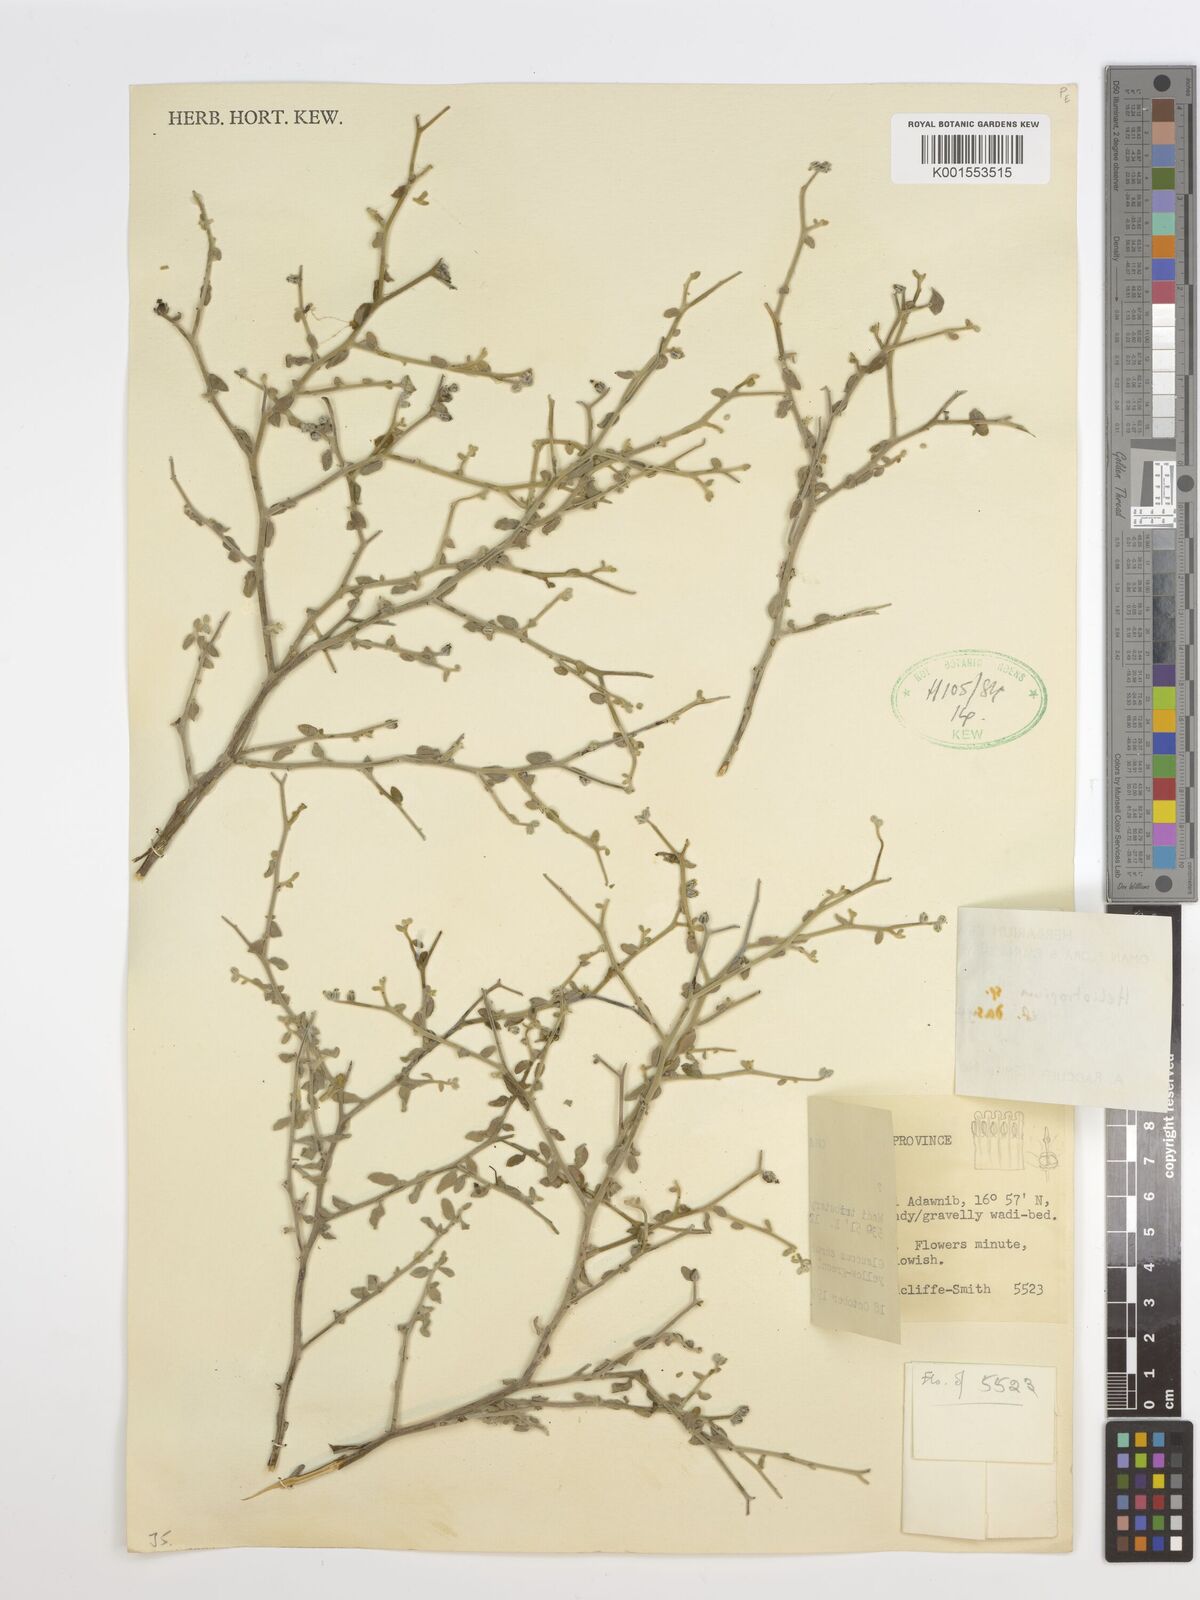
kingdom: Plantae
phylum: Tracheophyta
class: Magnoliopsida
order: Boraginales
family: Heliotropiaceae
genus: Heliotropium
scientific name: Heliotropium dasycarpum
